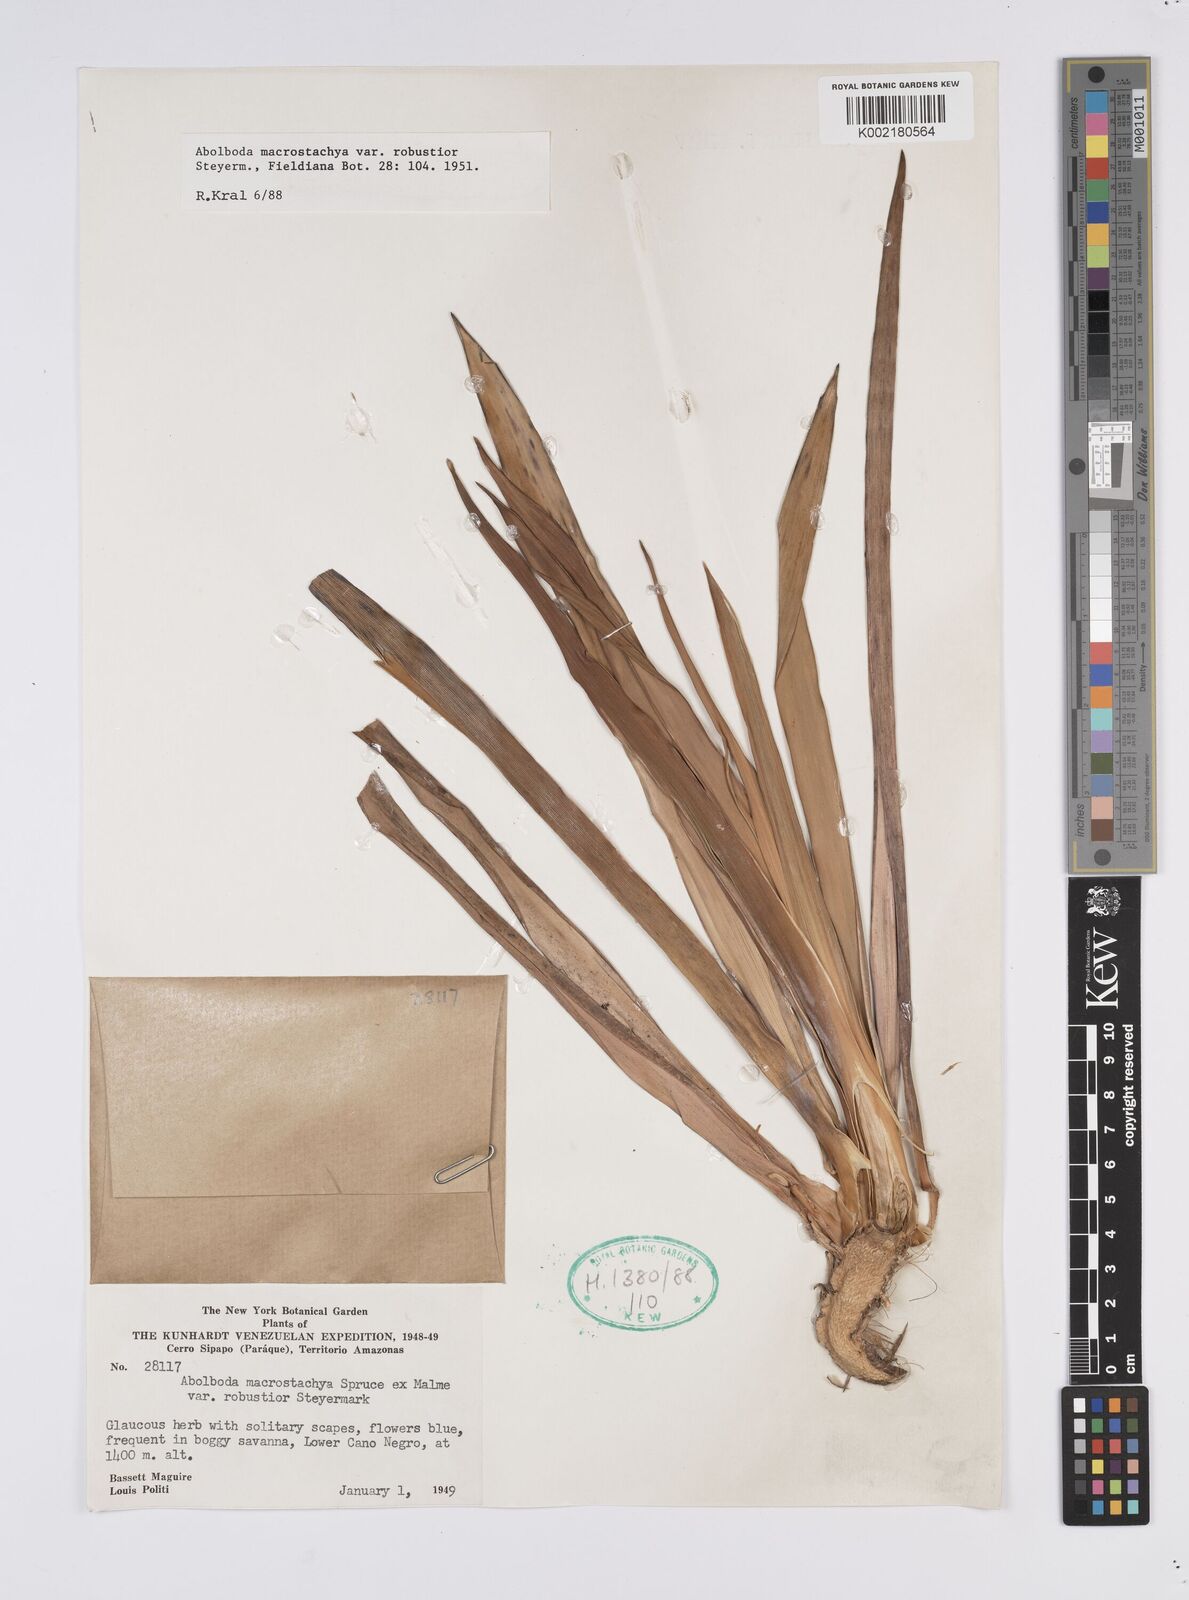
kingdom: Plantae
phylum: Tracheophyta
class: Liliopsida
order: Poales
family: Xyridaceae
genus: Abolboda
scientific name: Abolboda macrostachya
